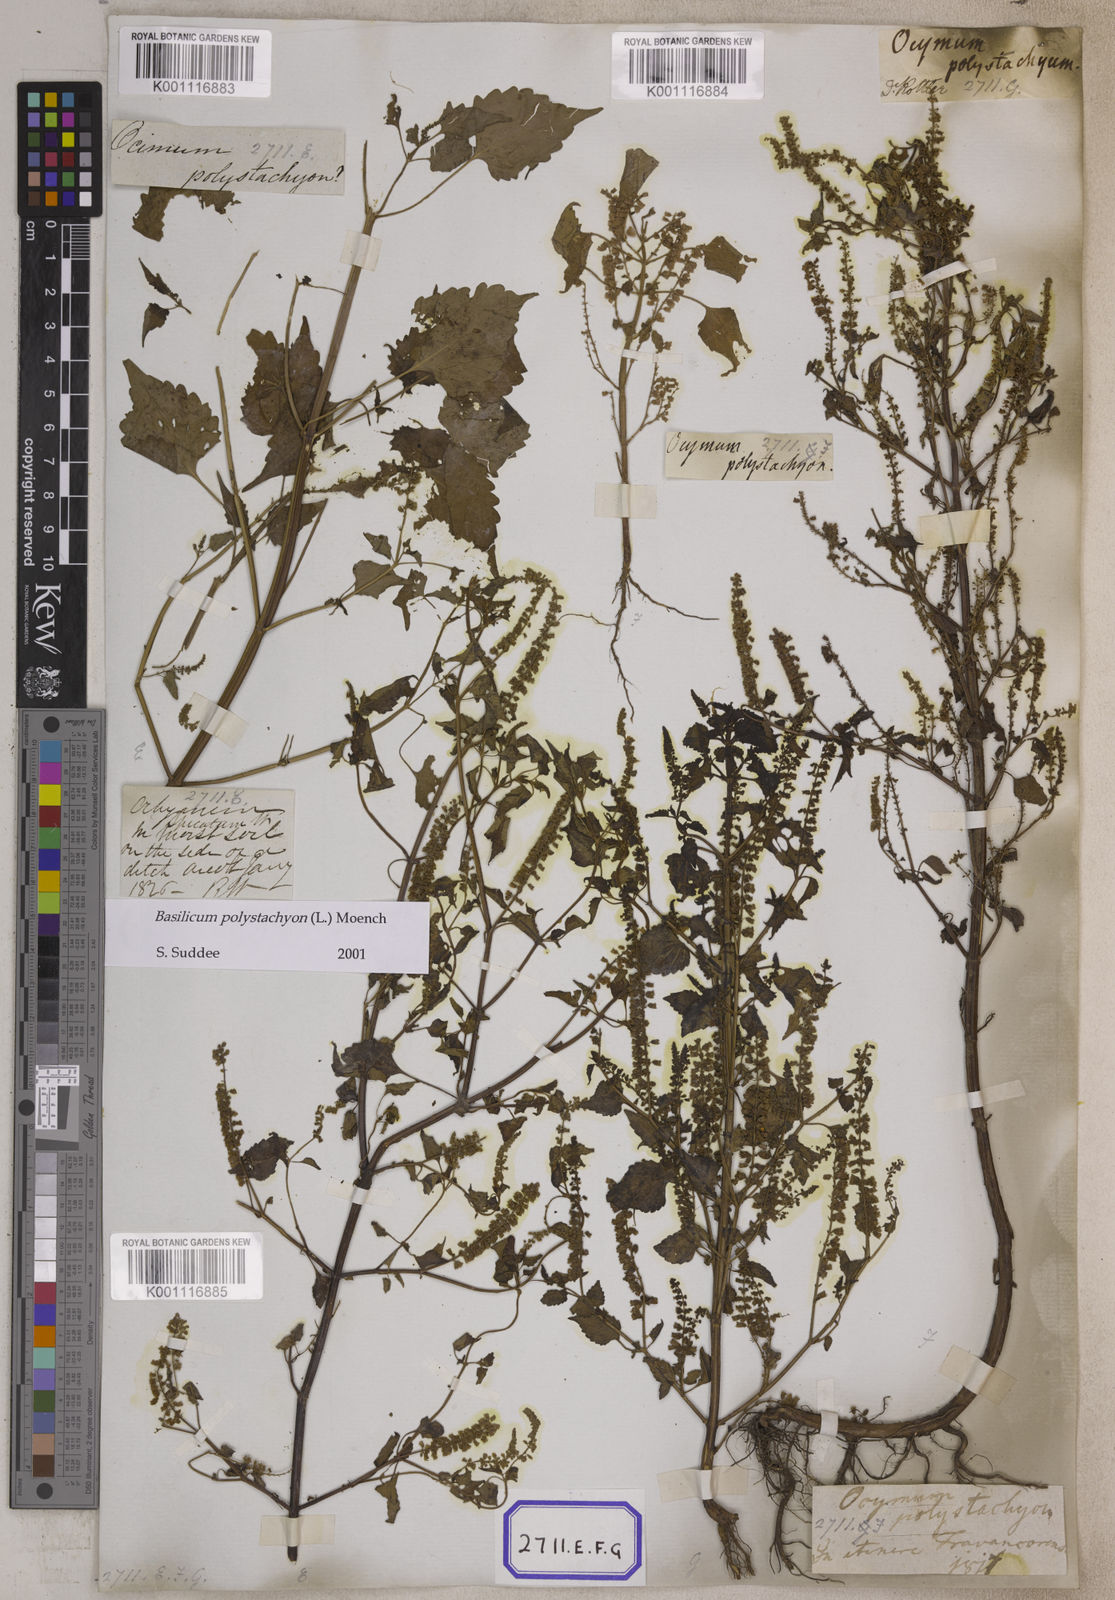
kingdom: Plantae
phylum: Tracheophyta
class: Magnoliopsida
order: Lamiales
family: Lamiaceae
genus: Basilicum
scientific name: Basilicum polystachyon
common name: Musk-basil
